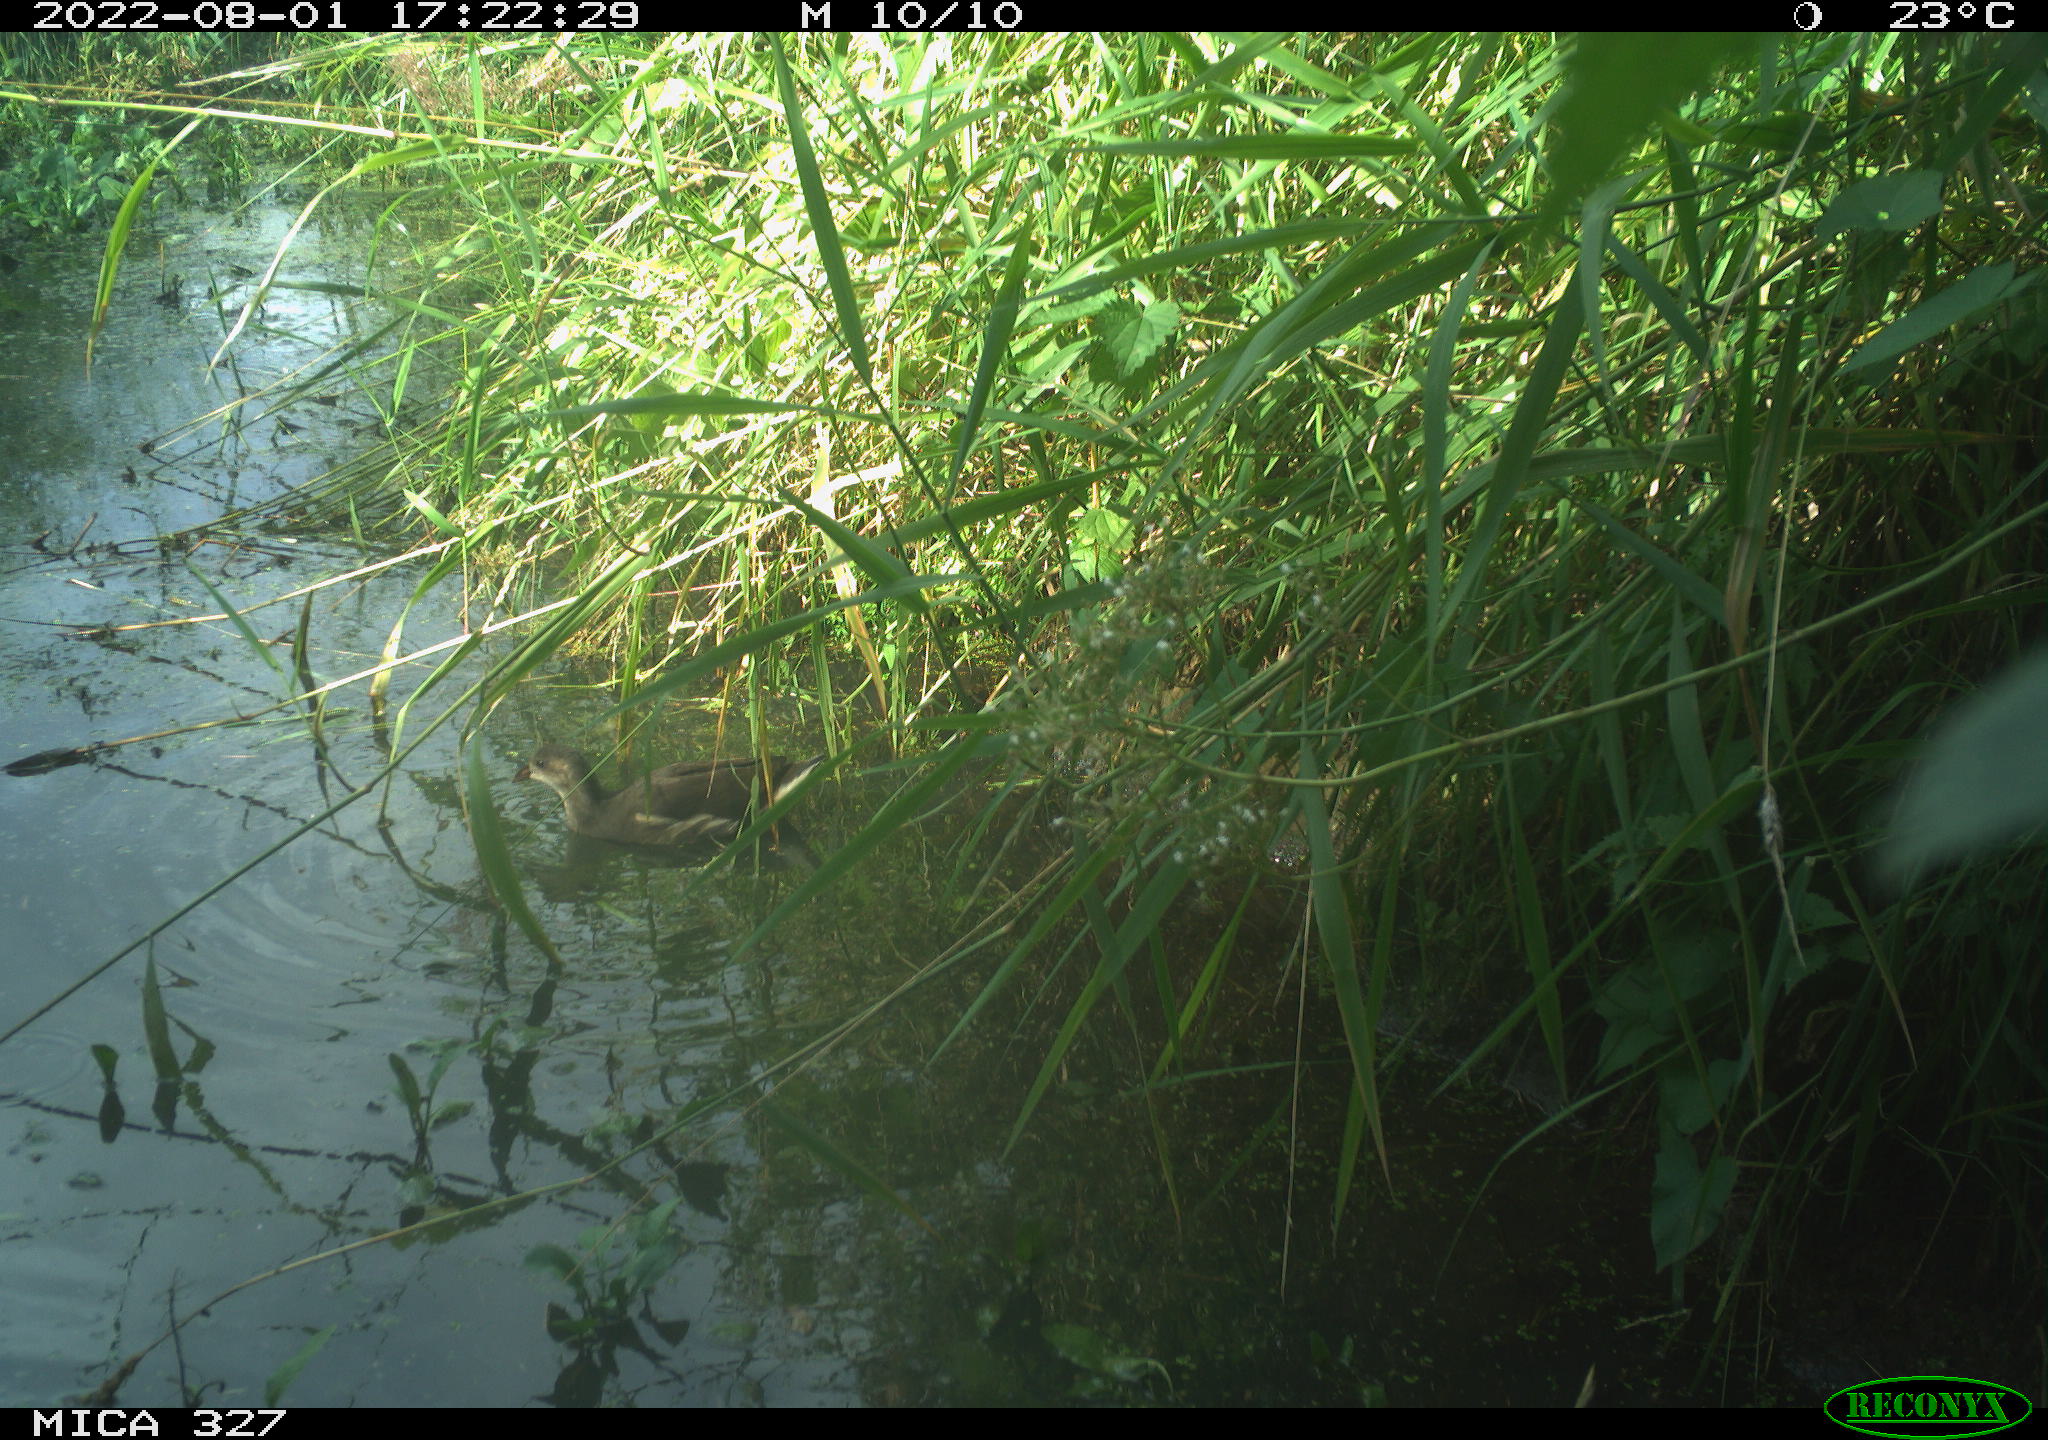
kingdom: Animalia
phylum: Chordata
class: Aves
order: Gruiformes
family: Rallidae
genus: Gallinula
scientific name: Gallinula chloropus
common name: Common moorhen
